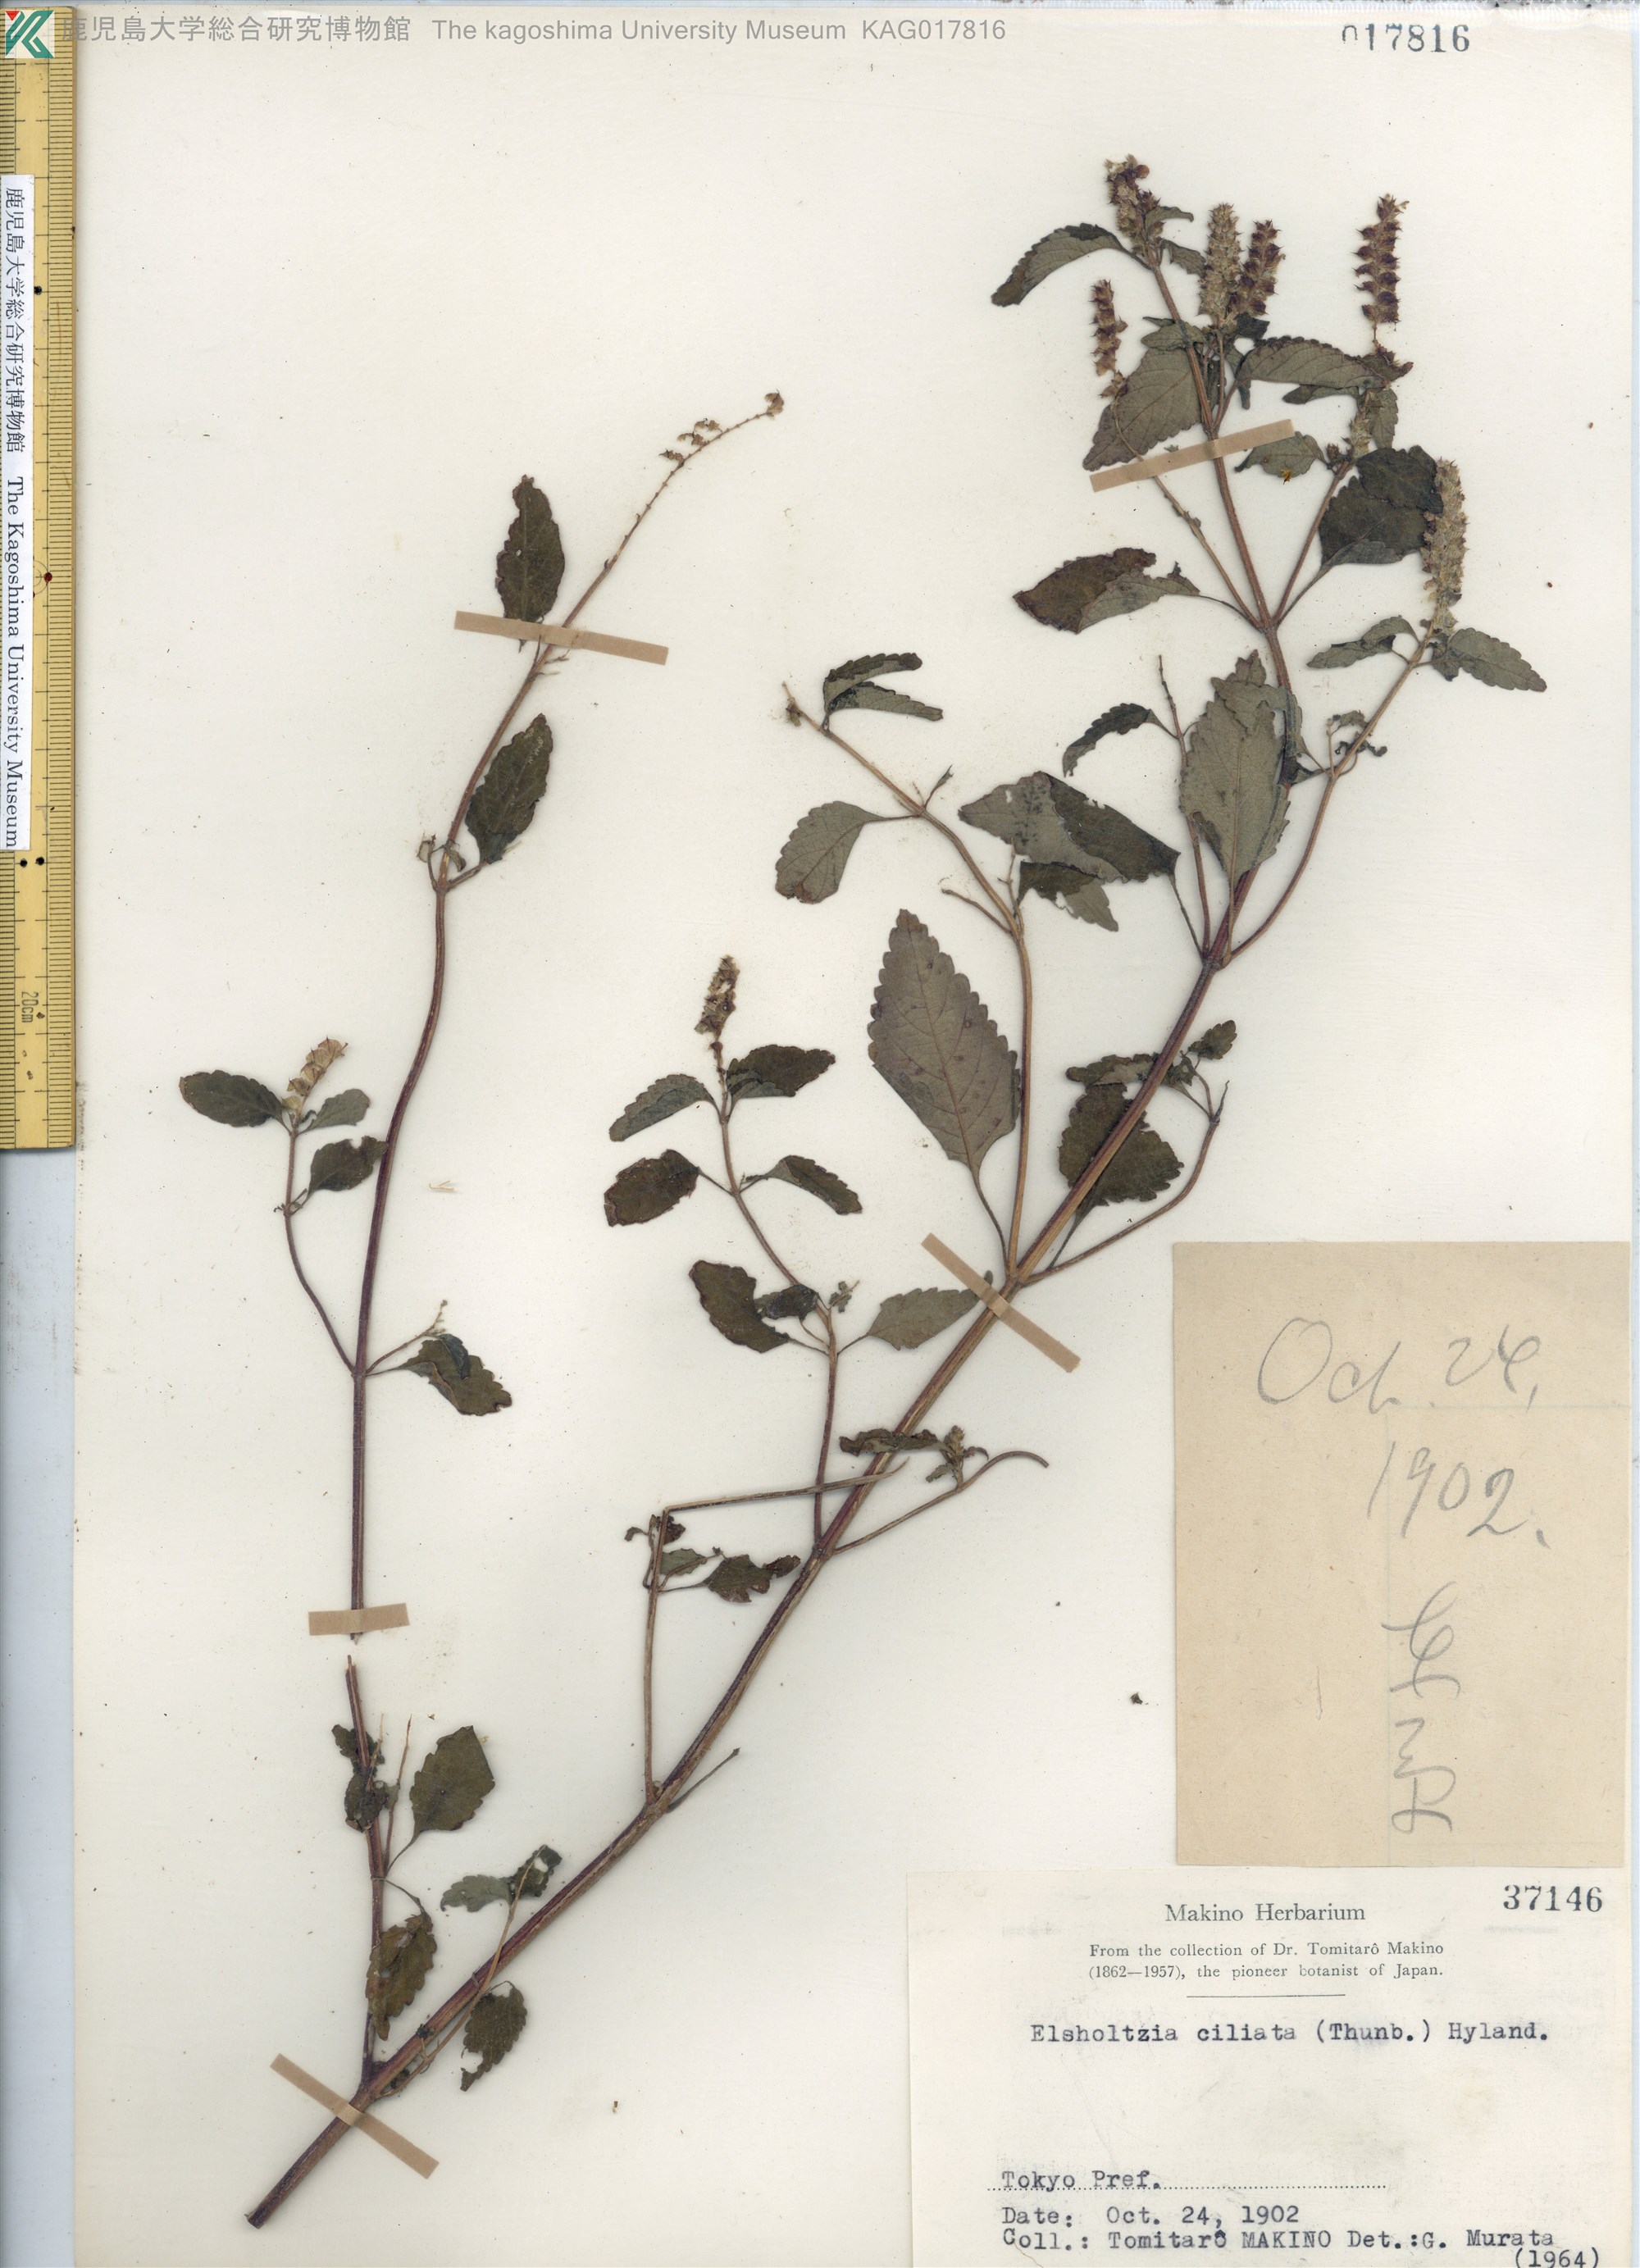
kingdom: Plantae
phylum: Tracheophyta
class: Magnoliopsida
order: Lamiales
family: Lamiaceae
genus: Elsholtzia
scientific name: Elsholtzia ciliata
